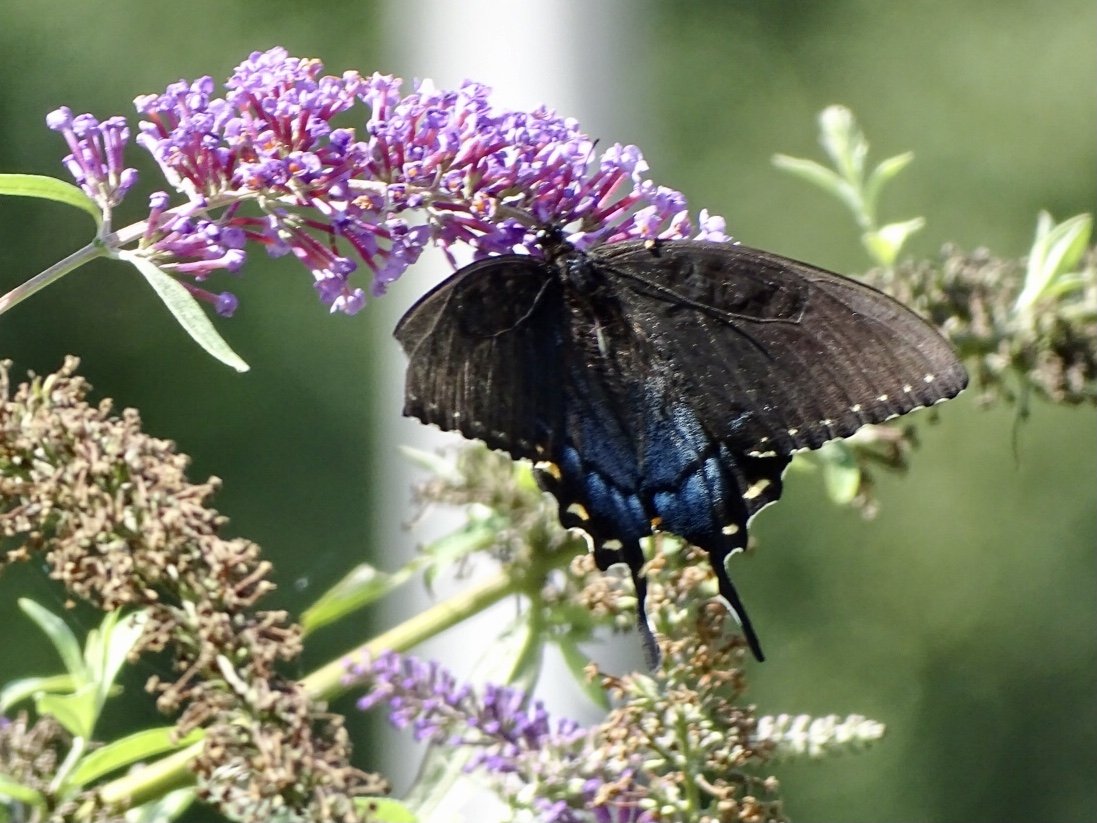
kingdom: Animalia
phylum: Arthropoda
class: Insecta
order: Lepidoptera
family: Papilionidae
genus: Pterourus
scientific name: Pterourus glaucus
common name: Eastern Tiger Swallowtail
